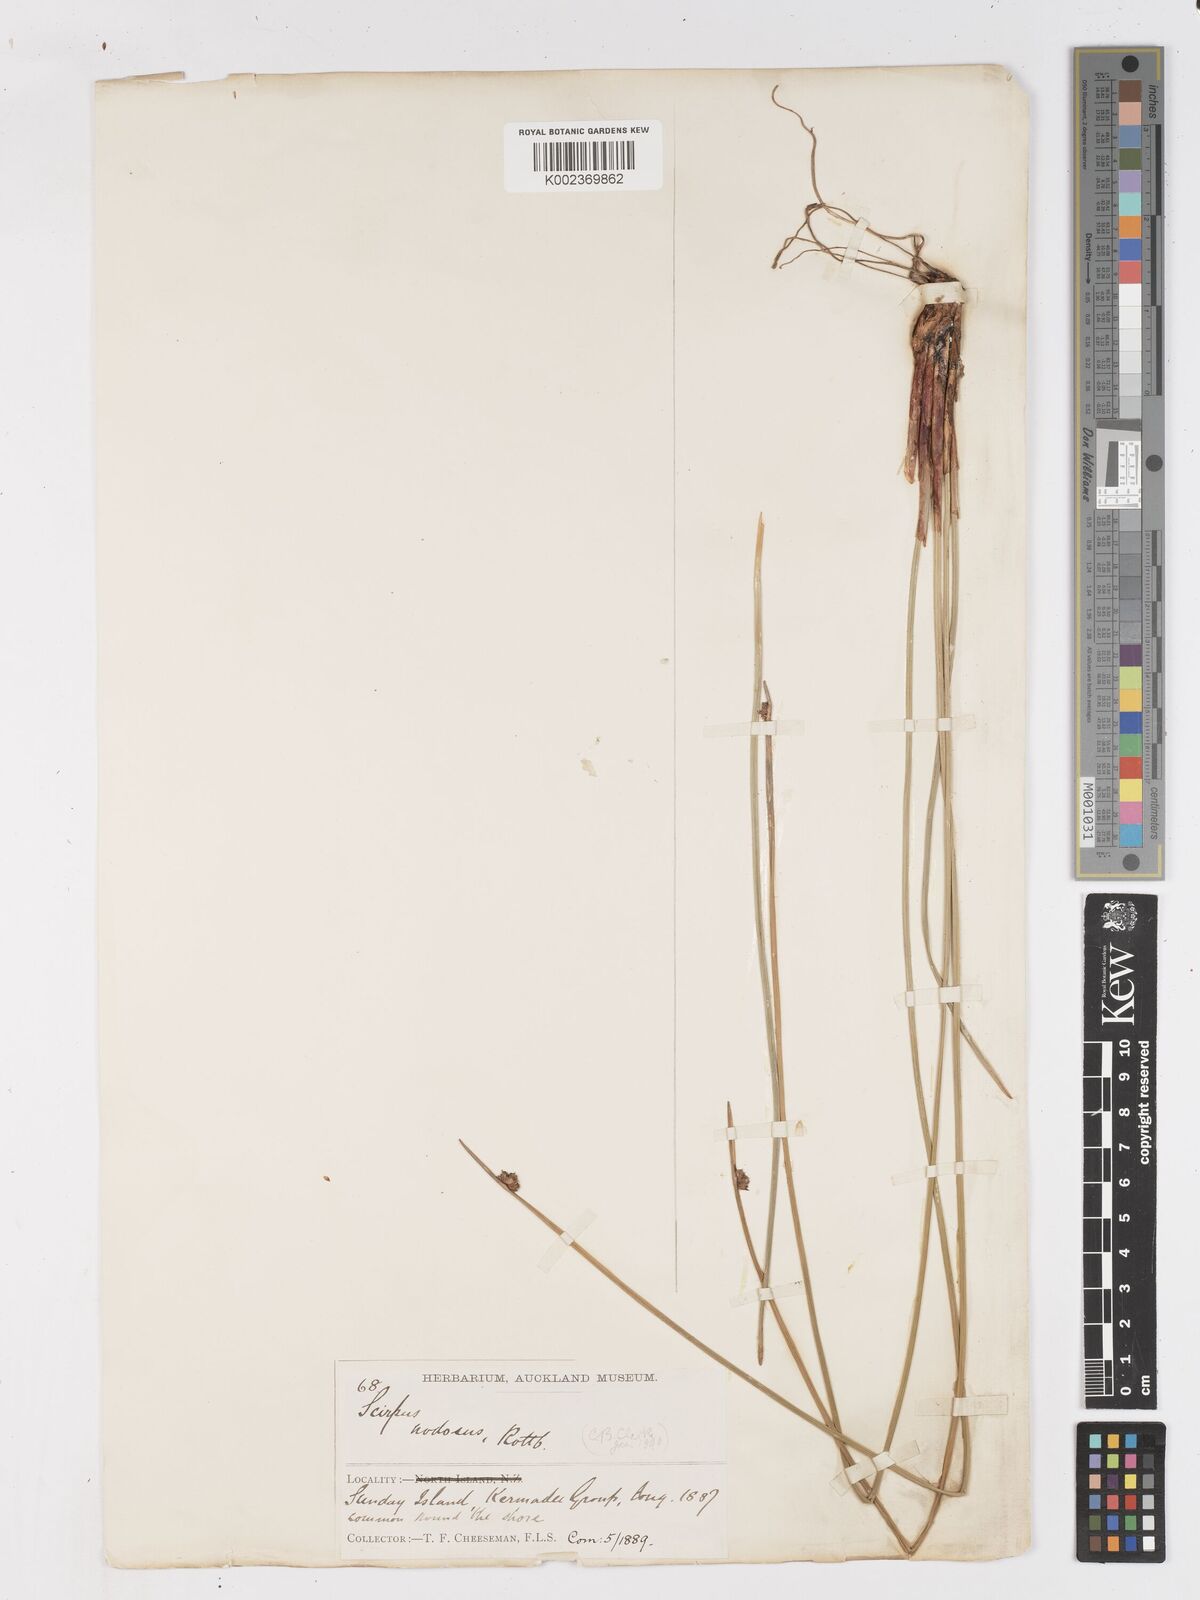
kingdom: Plantae
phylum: Tracheophyta
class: Liliopsida
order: Poales
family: Cyperaceae
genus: Ficinia
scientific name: Ficinia nodosa
